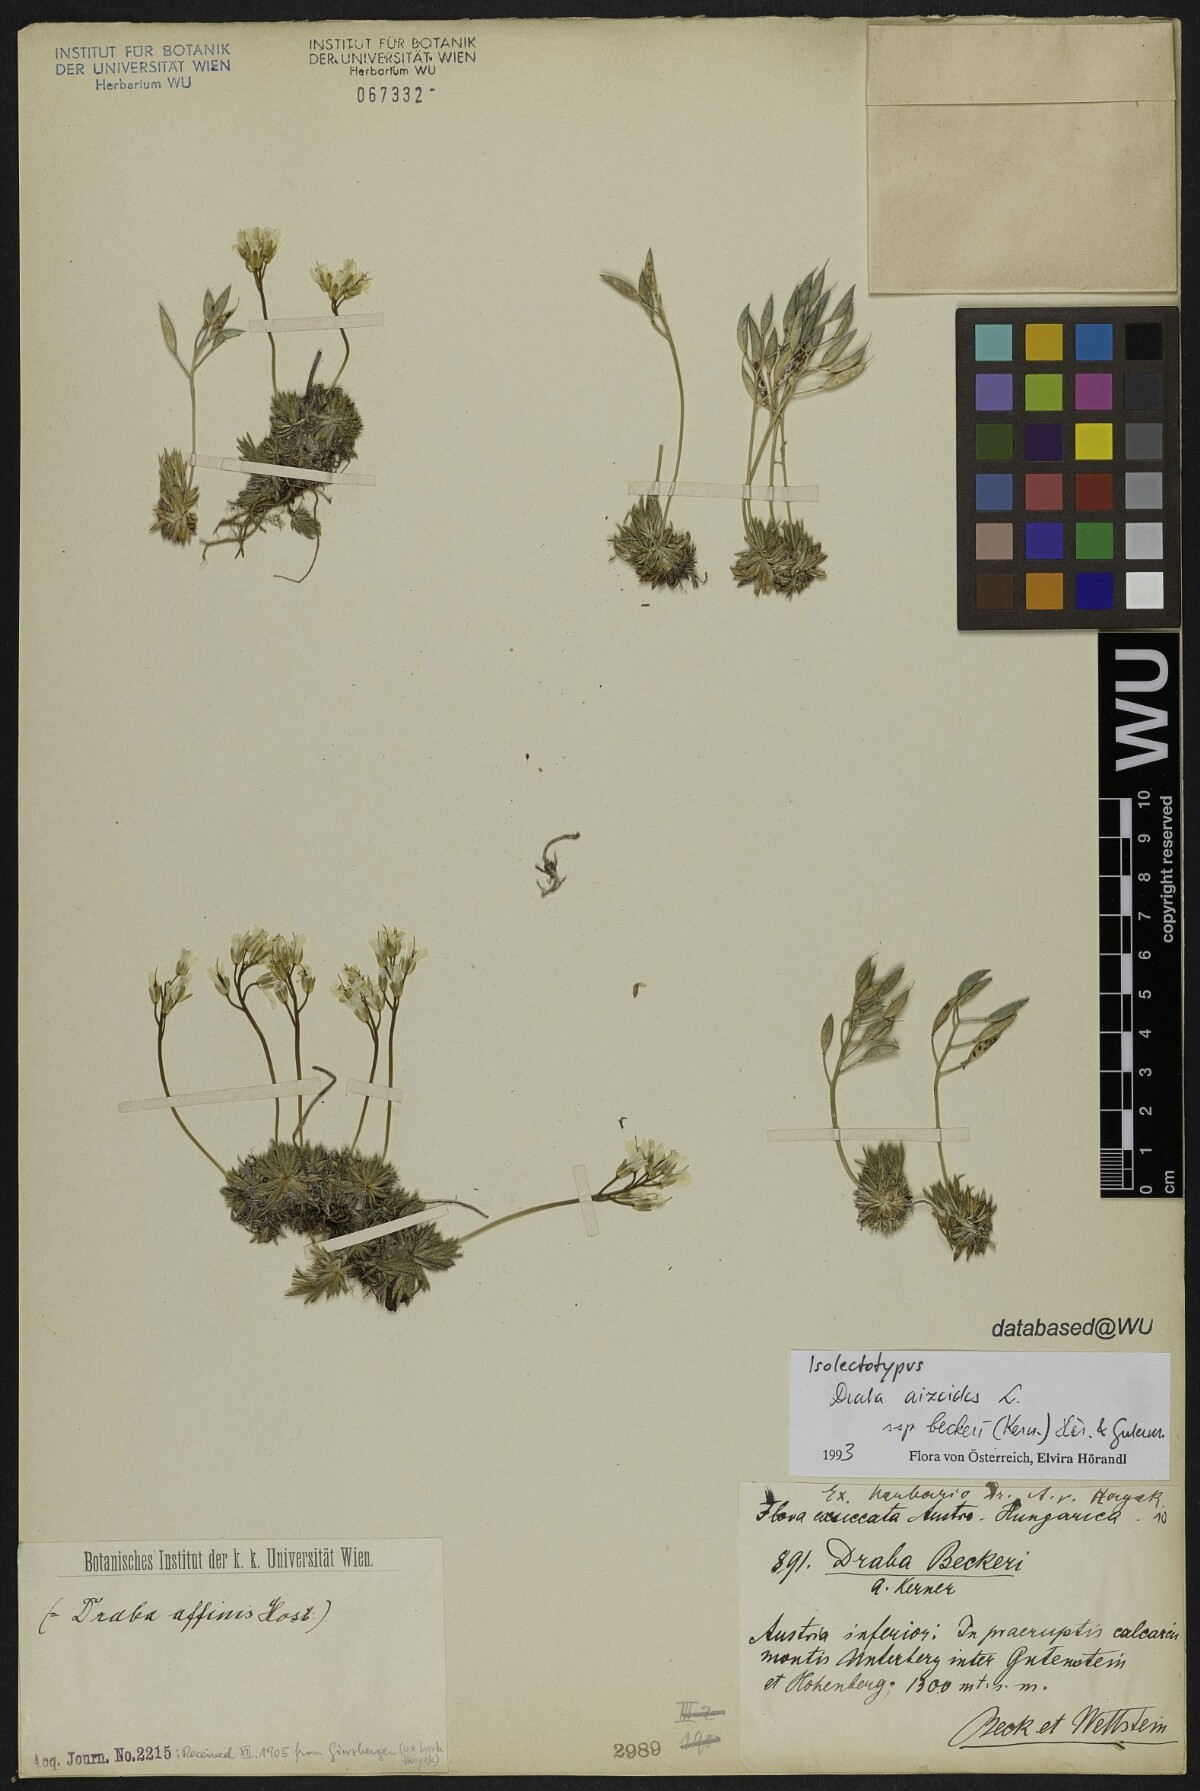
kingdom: Plantae
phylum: Tracheophyta
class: Magnoliopsida
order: Brassicales
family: Brassicaceae
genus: Draba
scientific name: Draba aizoides
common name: Yellow whitlowgrass
